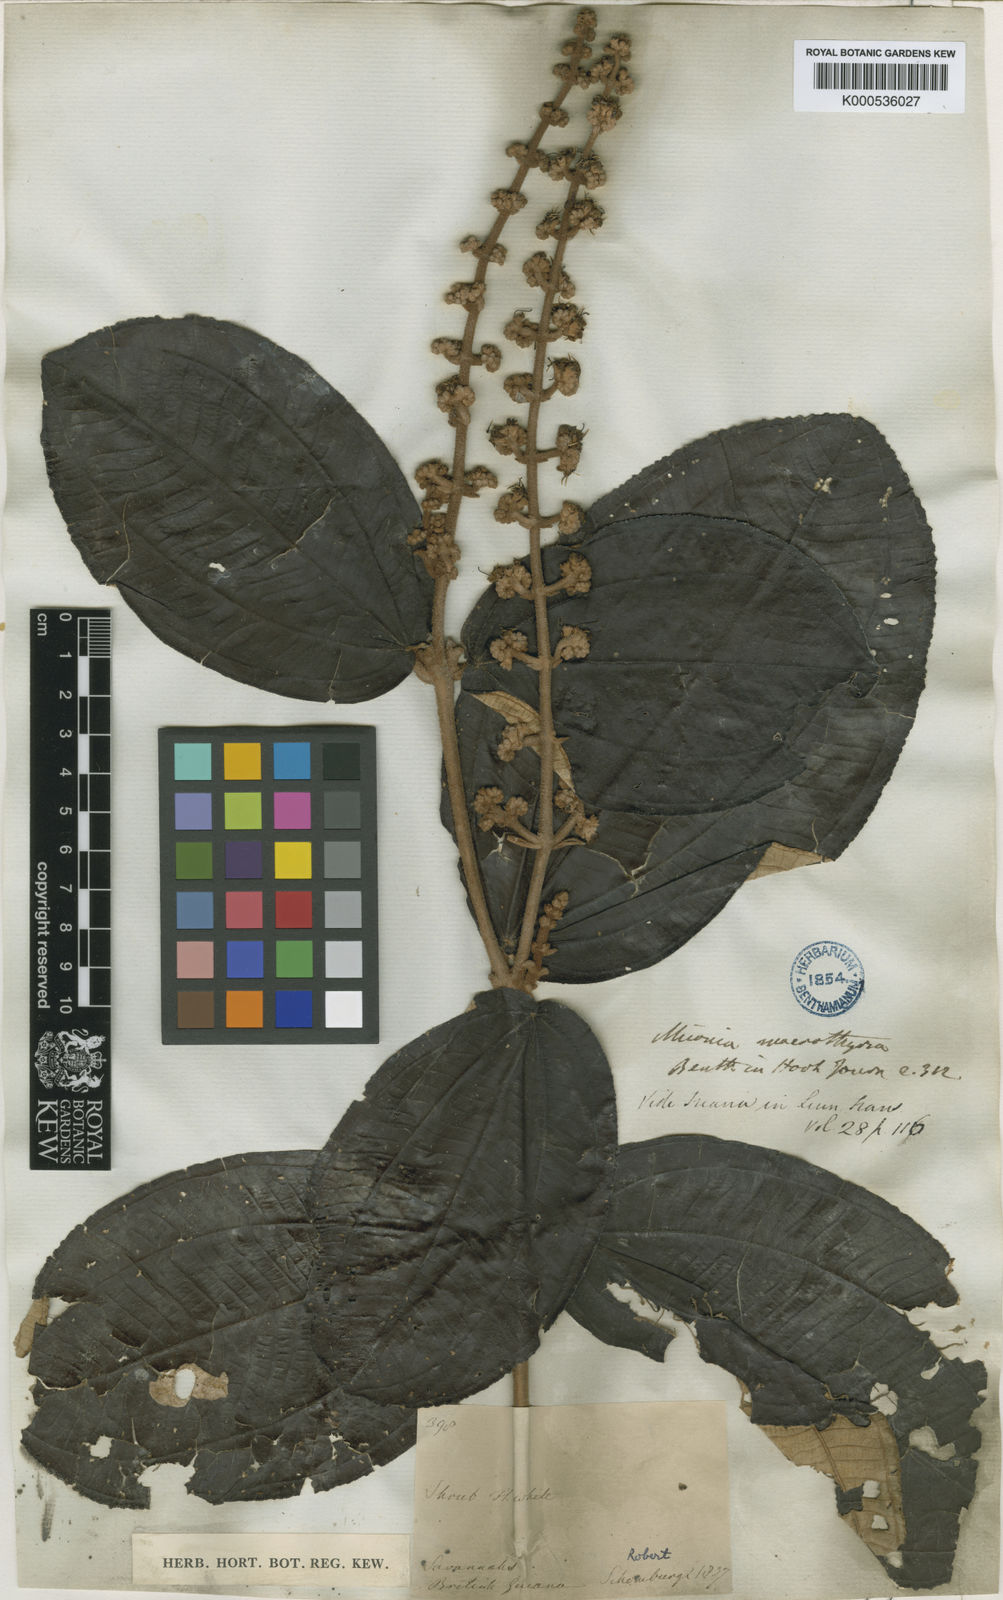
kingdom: Plantae
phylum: Tracheophyta
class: Magnoliopsida
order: Myrtales
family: Melastomataceae
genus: Miconia
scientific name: Miconia macrothyrsa
